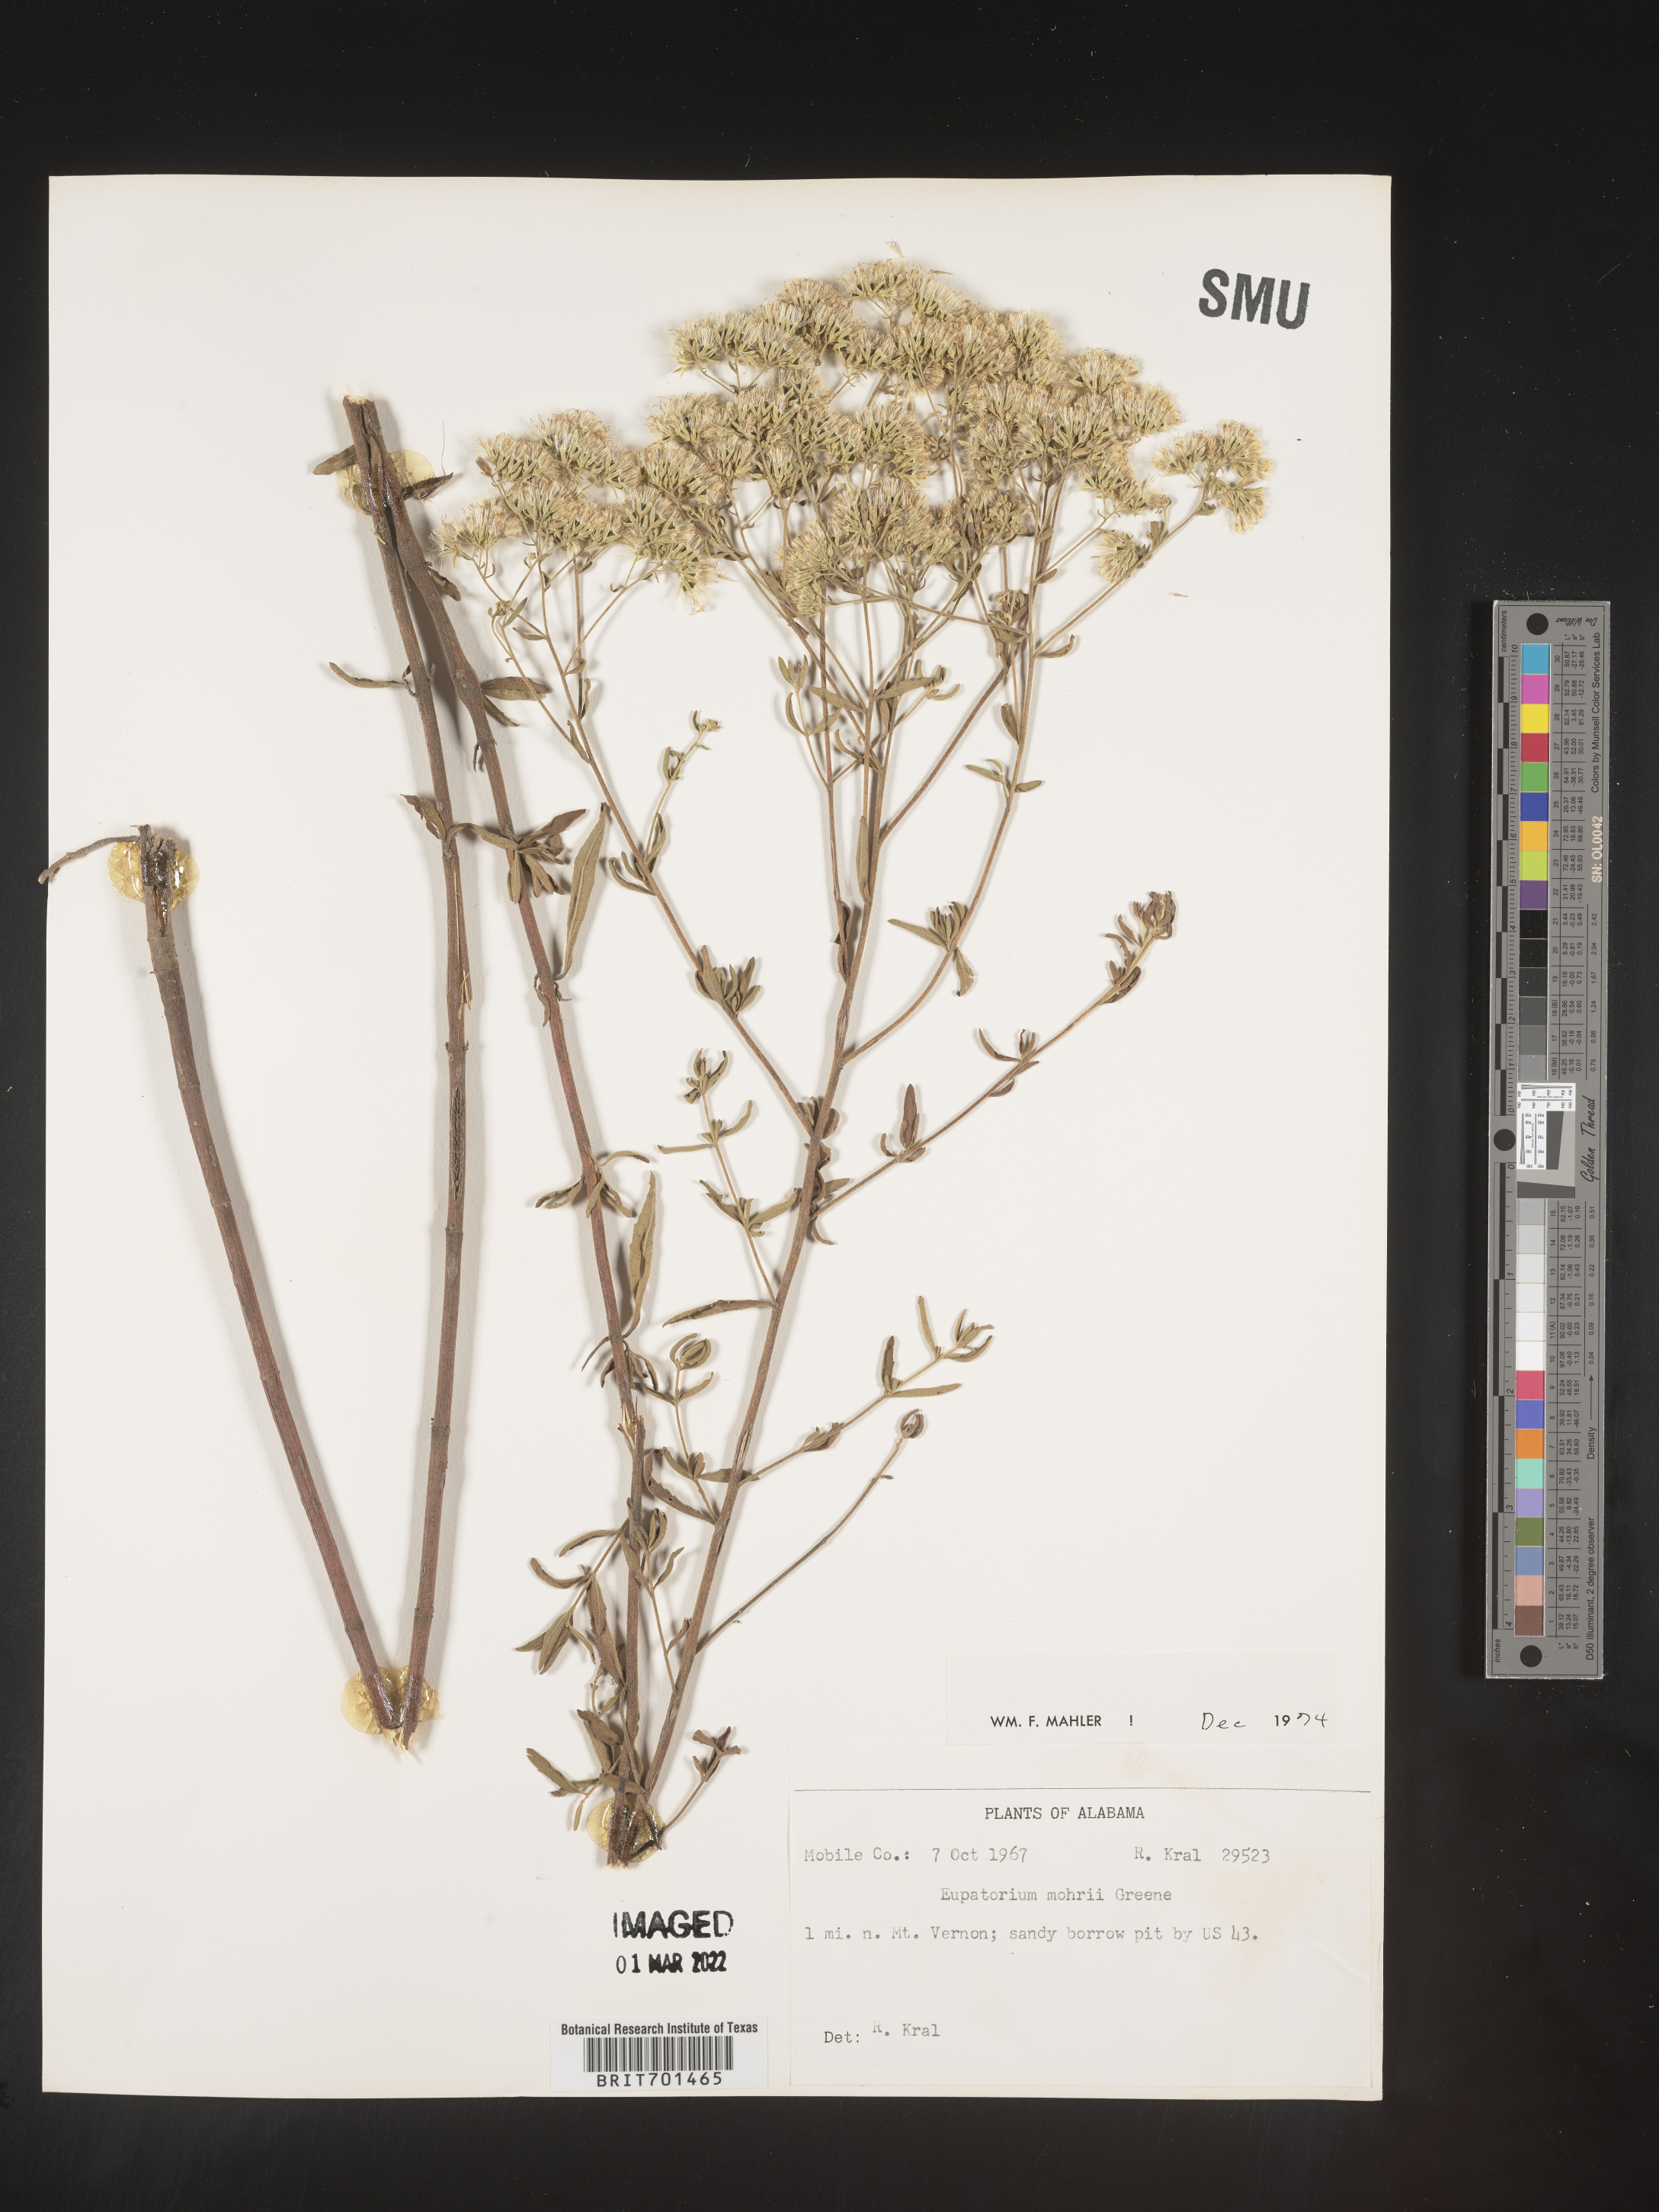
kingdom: Plantae
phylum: Tracheophyta
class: Magnoliopsida
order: Asterales
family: Asteraceae
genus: Eupatorium
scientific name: Eupatorium mohrii
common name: Mohr's thoroughwort
